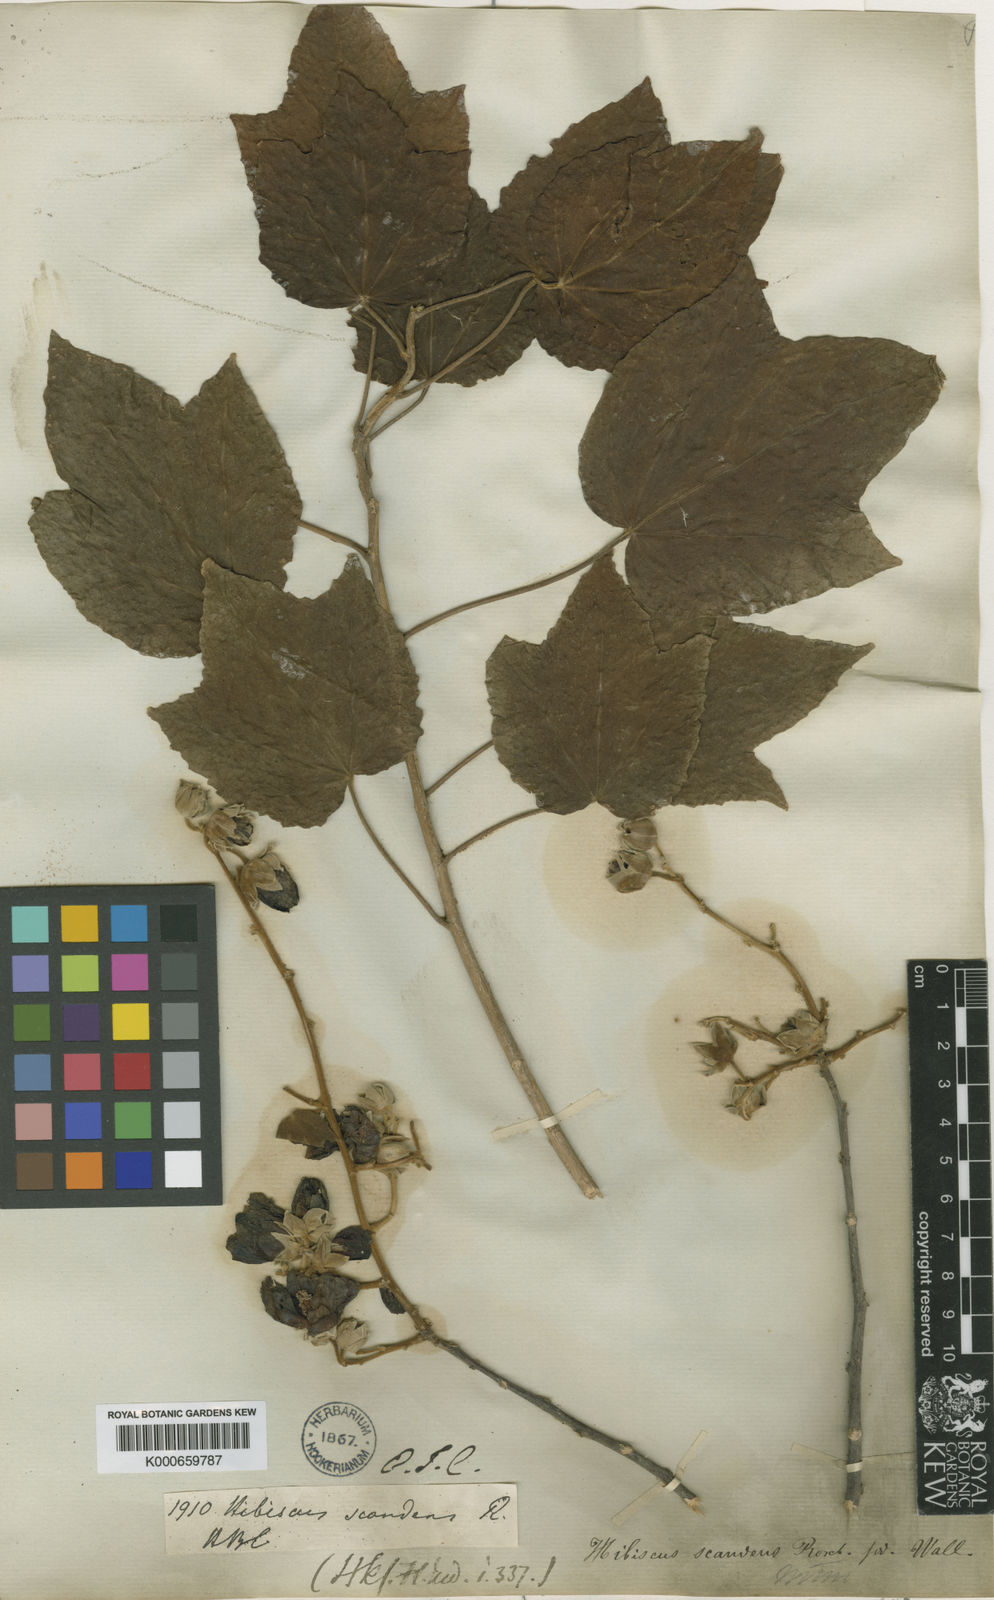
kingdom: Plantae
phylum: Tracheophyta
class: Magnoliopsida
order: Malvales
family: Malvaceae
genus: Hibiscus
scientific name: Hibiscus
